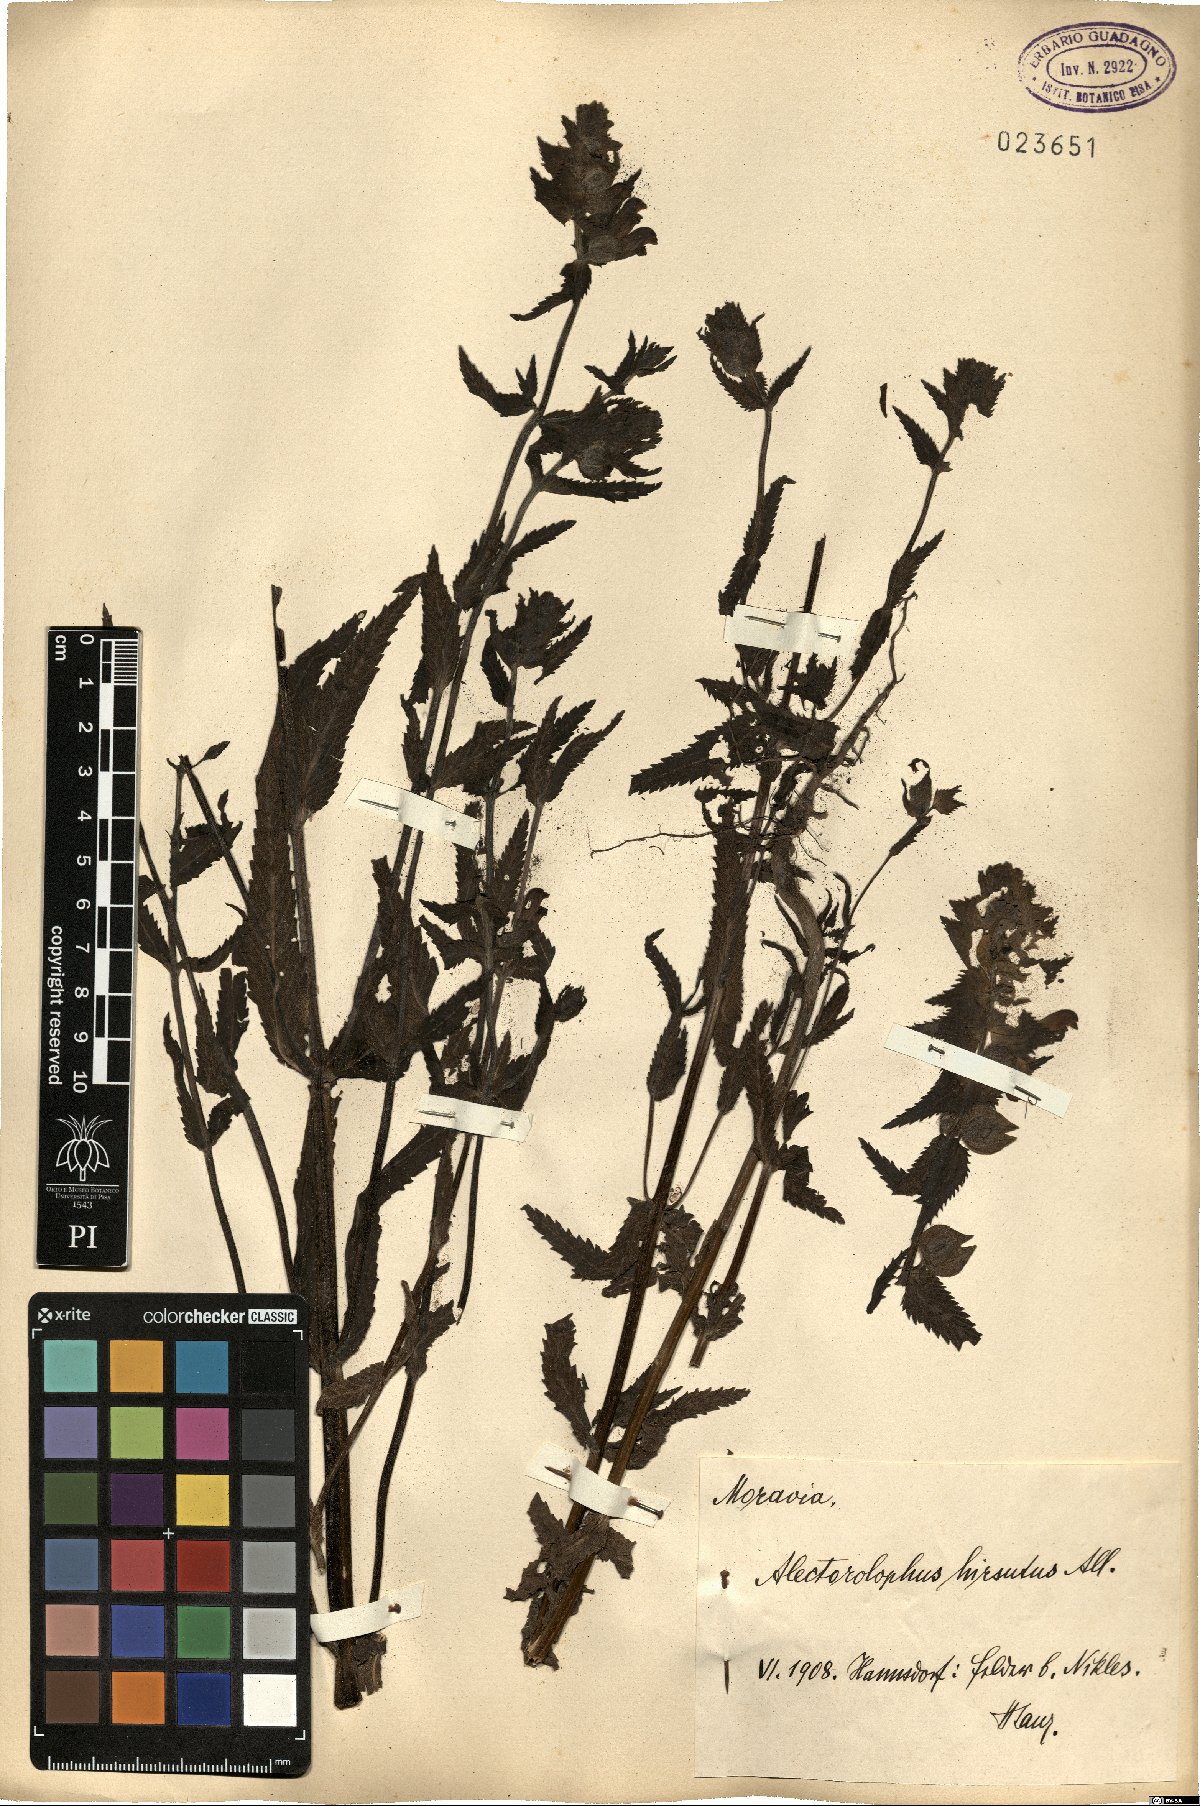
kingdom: Plantae
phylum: Tracheophyta
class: Magnoliopsida
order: Lamiales
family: Orobanchaceae
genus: Rhinanthus
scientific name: Rhinanthus alectorolophus
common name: Greater yellow-rattle
